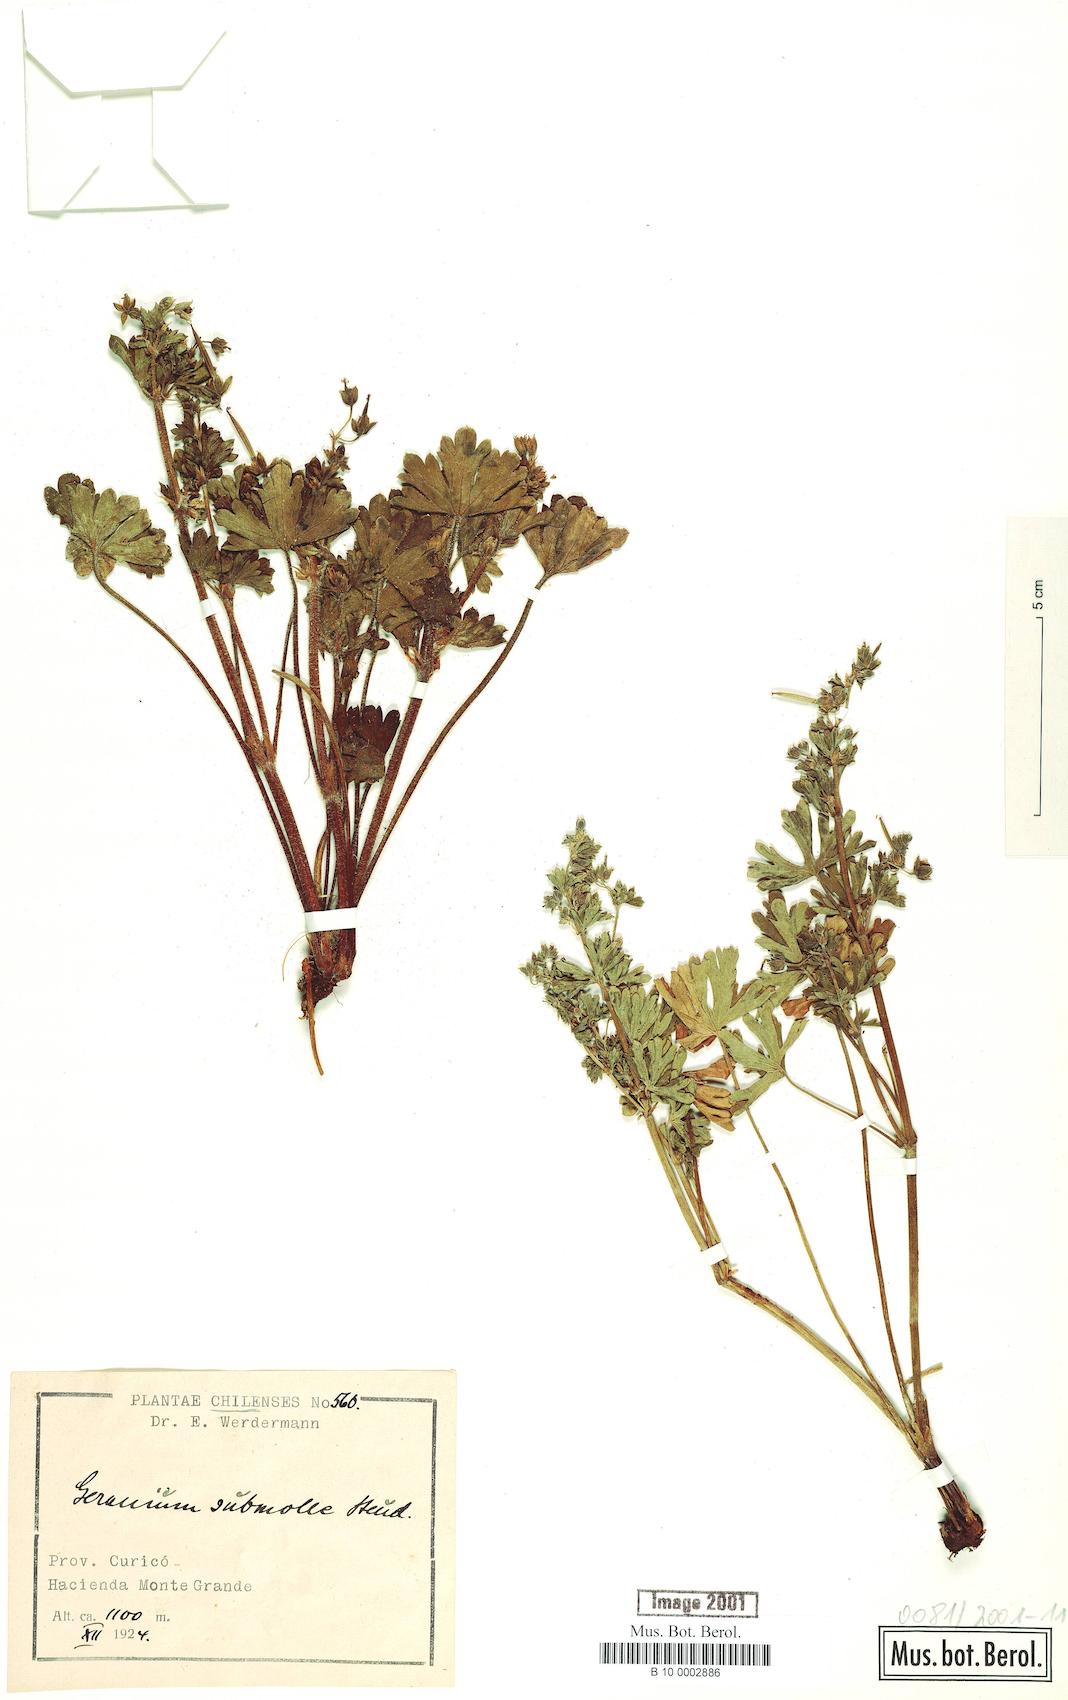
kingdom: Plantae
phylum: Tracheophyta
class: Magnoliopsida
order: Geraniales
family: Geraniaceae
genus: Geranium
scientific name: Geranium berteroanum
